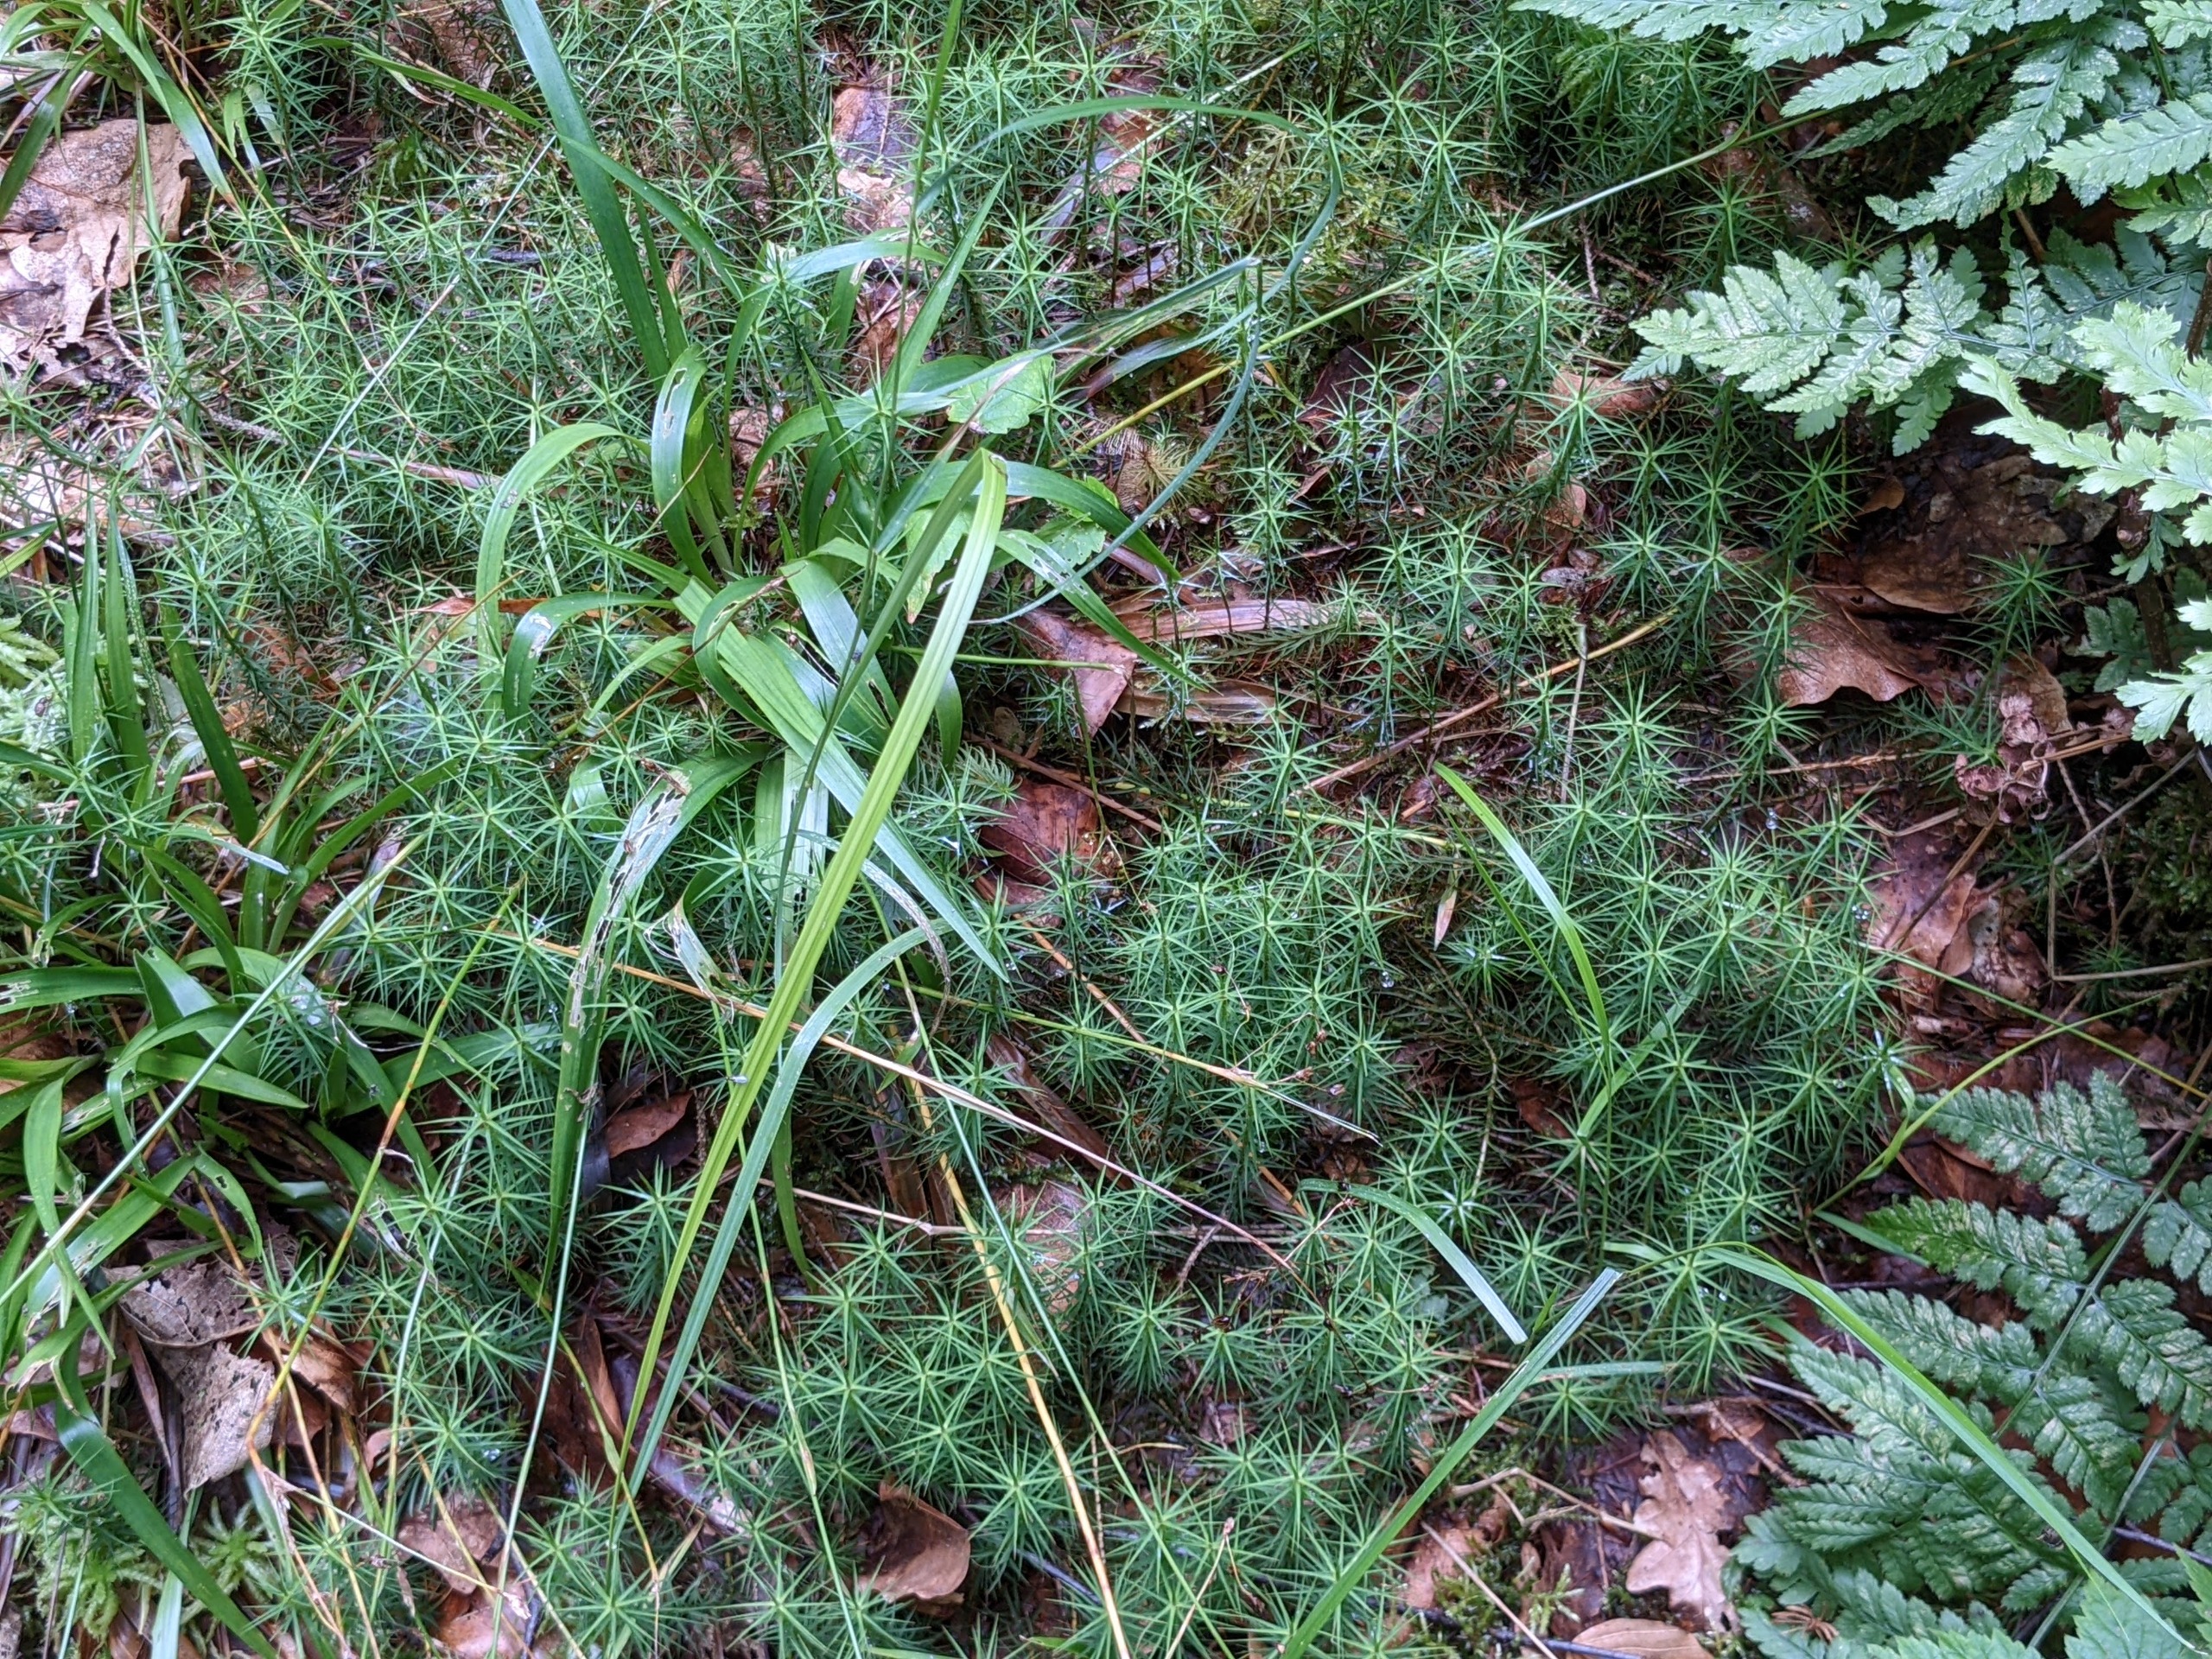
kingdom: Plantae
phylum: Bryophyta
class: Polytrichopsida
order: Polytrichales
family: Polytrichaceae
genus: Polytrichum
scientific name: Polytrichum commune
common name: Almindelig jomfruhår
